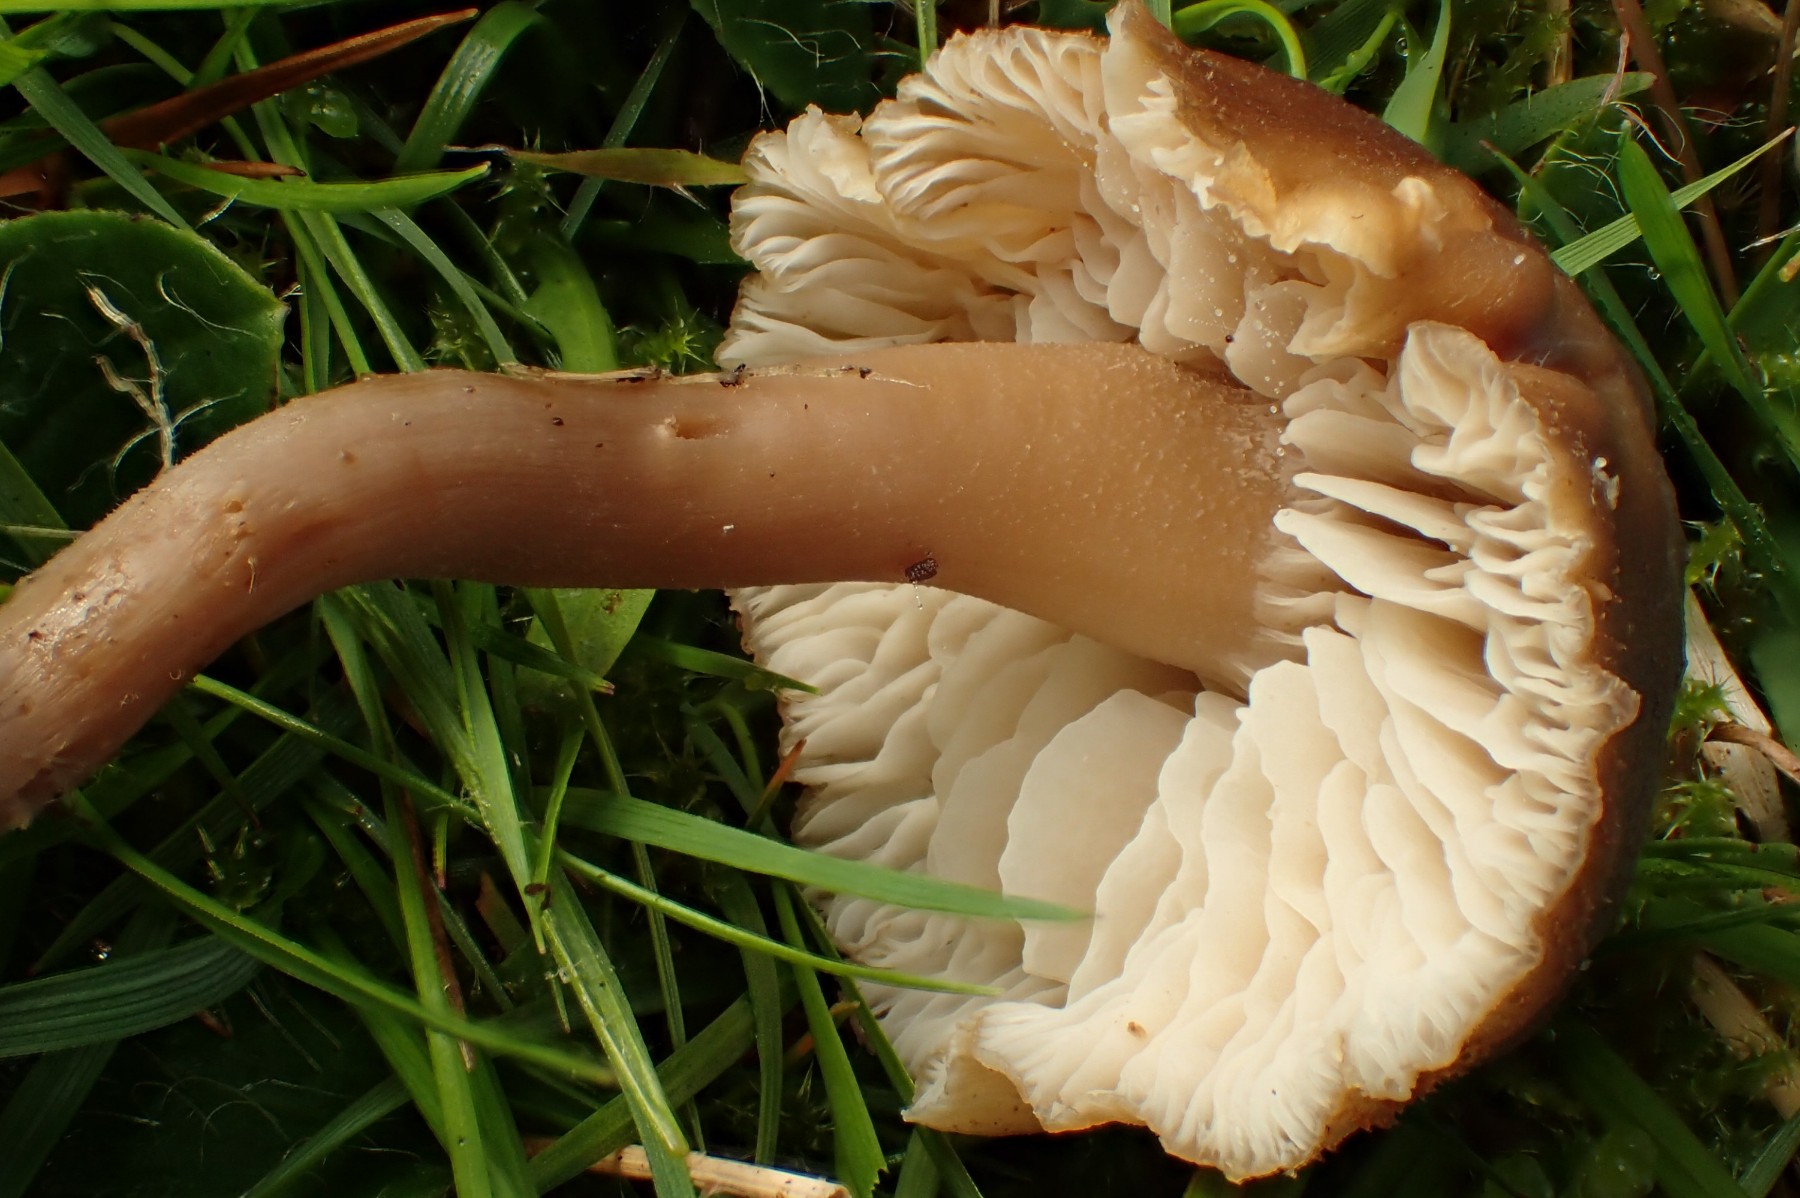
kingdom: Fungi
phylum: Basidiomycota
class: Agaricomycetes
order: Agaricales
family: Hygrophoraceae
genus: Neohygrocybe
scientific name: Neohygrocybe nitrata
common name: stinkende vokshat
